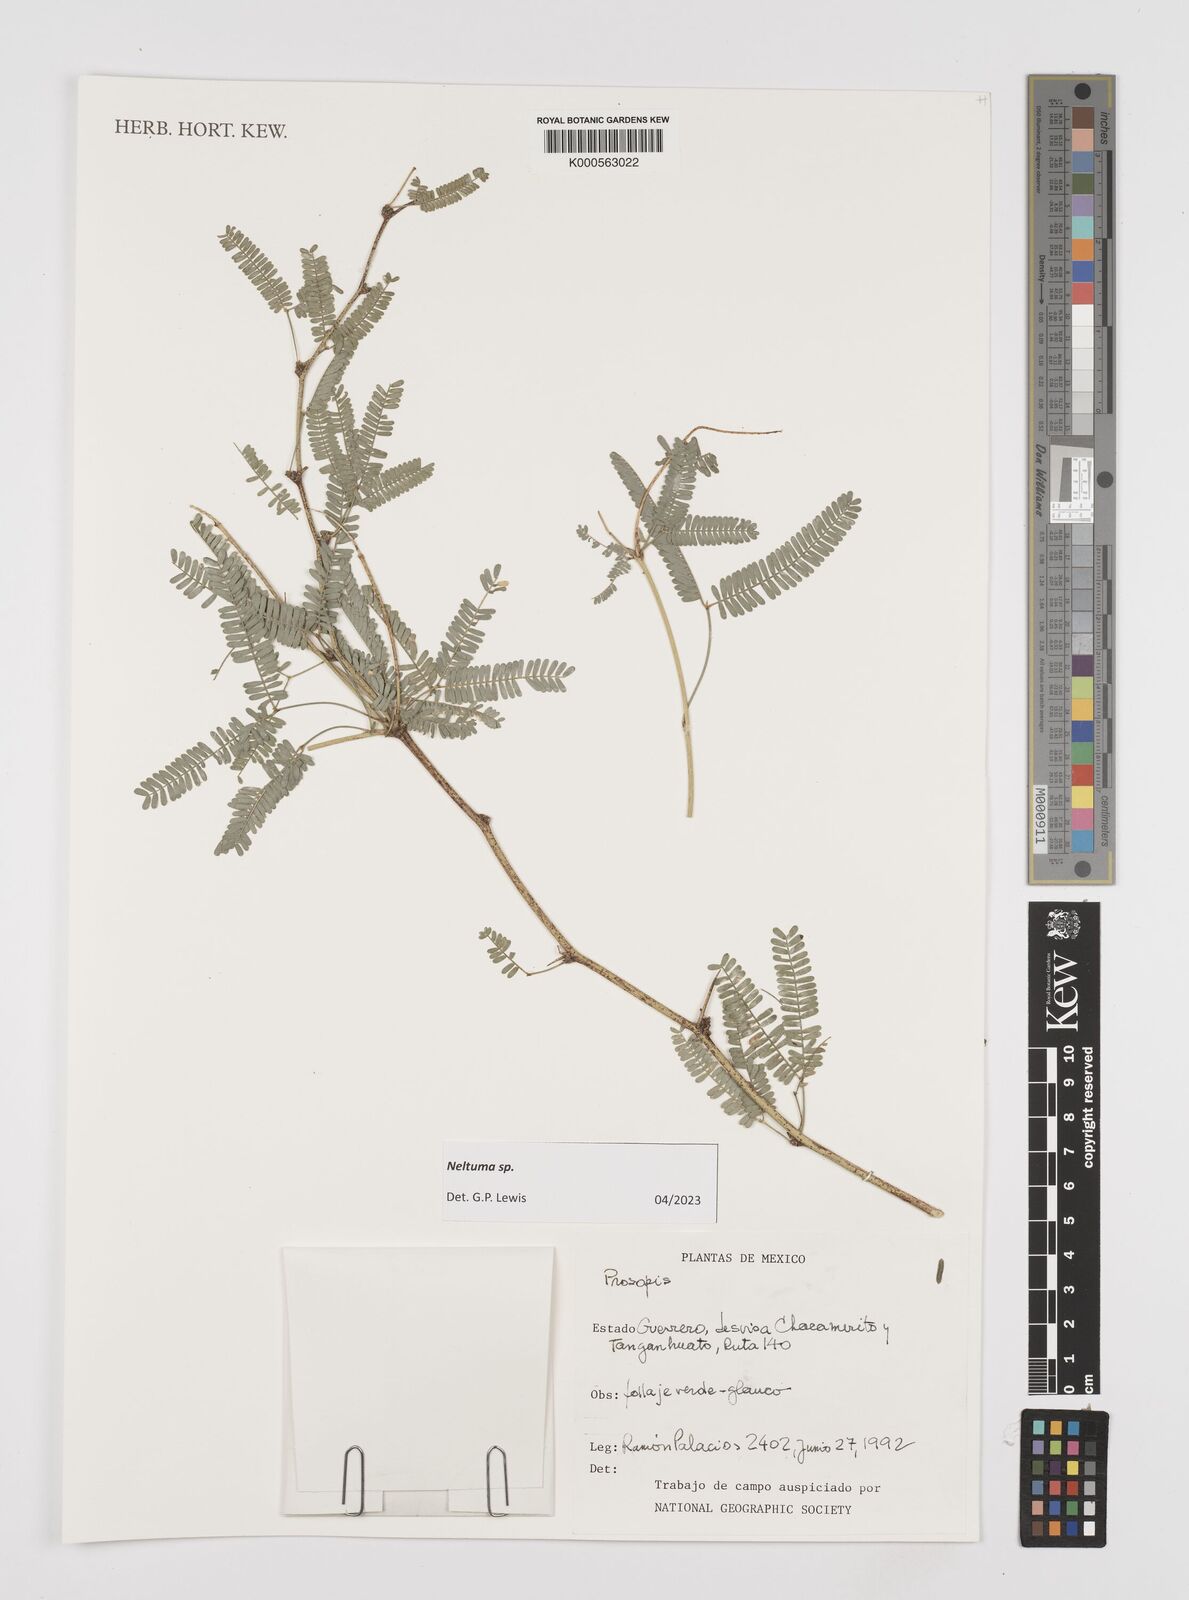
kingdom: Plantae
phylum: Tracheophyta
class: Magnoliopsida
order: Fabales
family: Fabaceae
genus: Prosopis
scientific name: Prosopis
